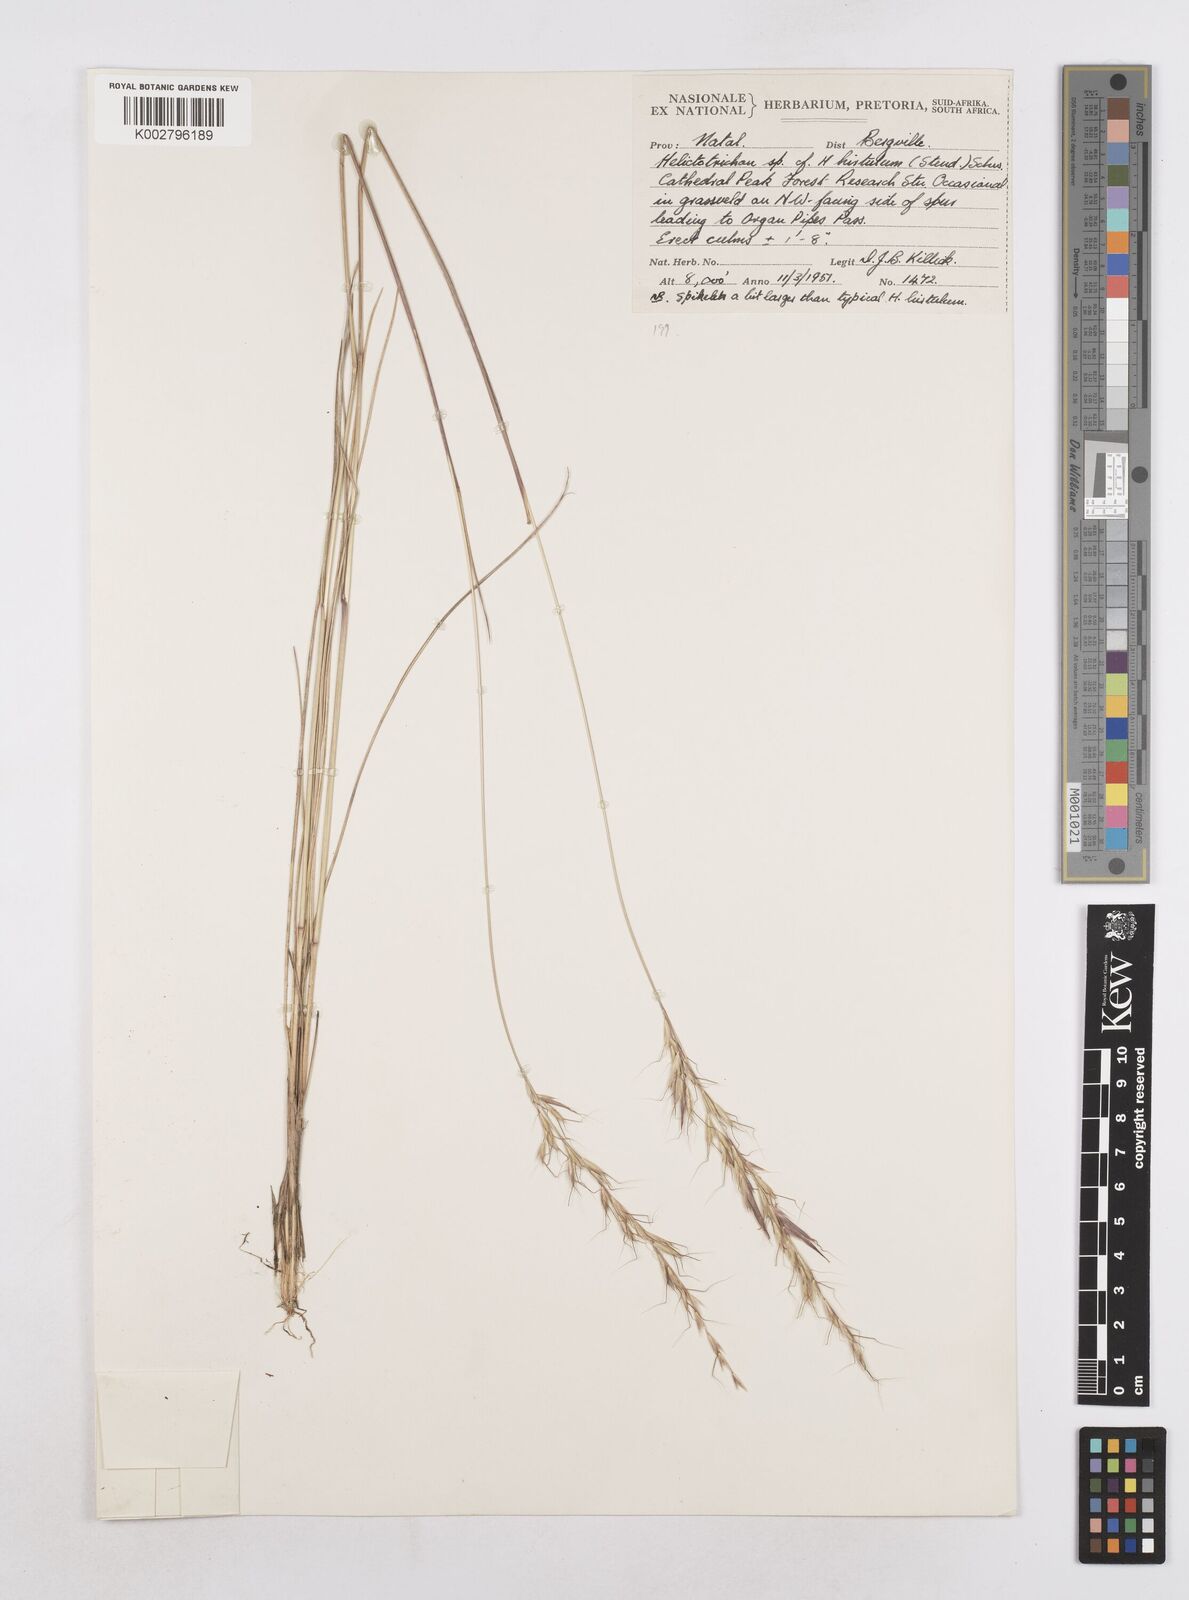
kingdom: Plantae
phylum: Tracheophyta
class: Liliopsida
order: Poales
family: Poaceae
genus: Helictotrichon
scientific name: Helictotrichon
